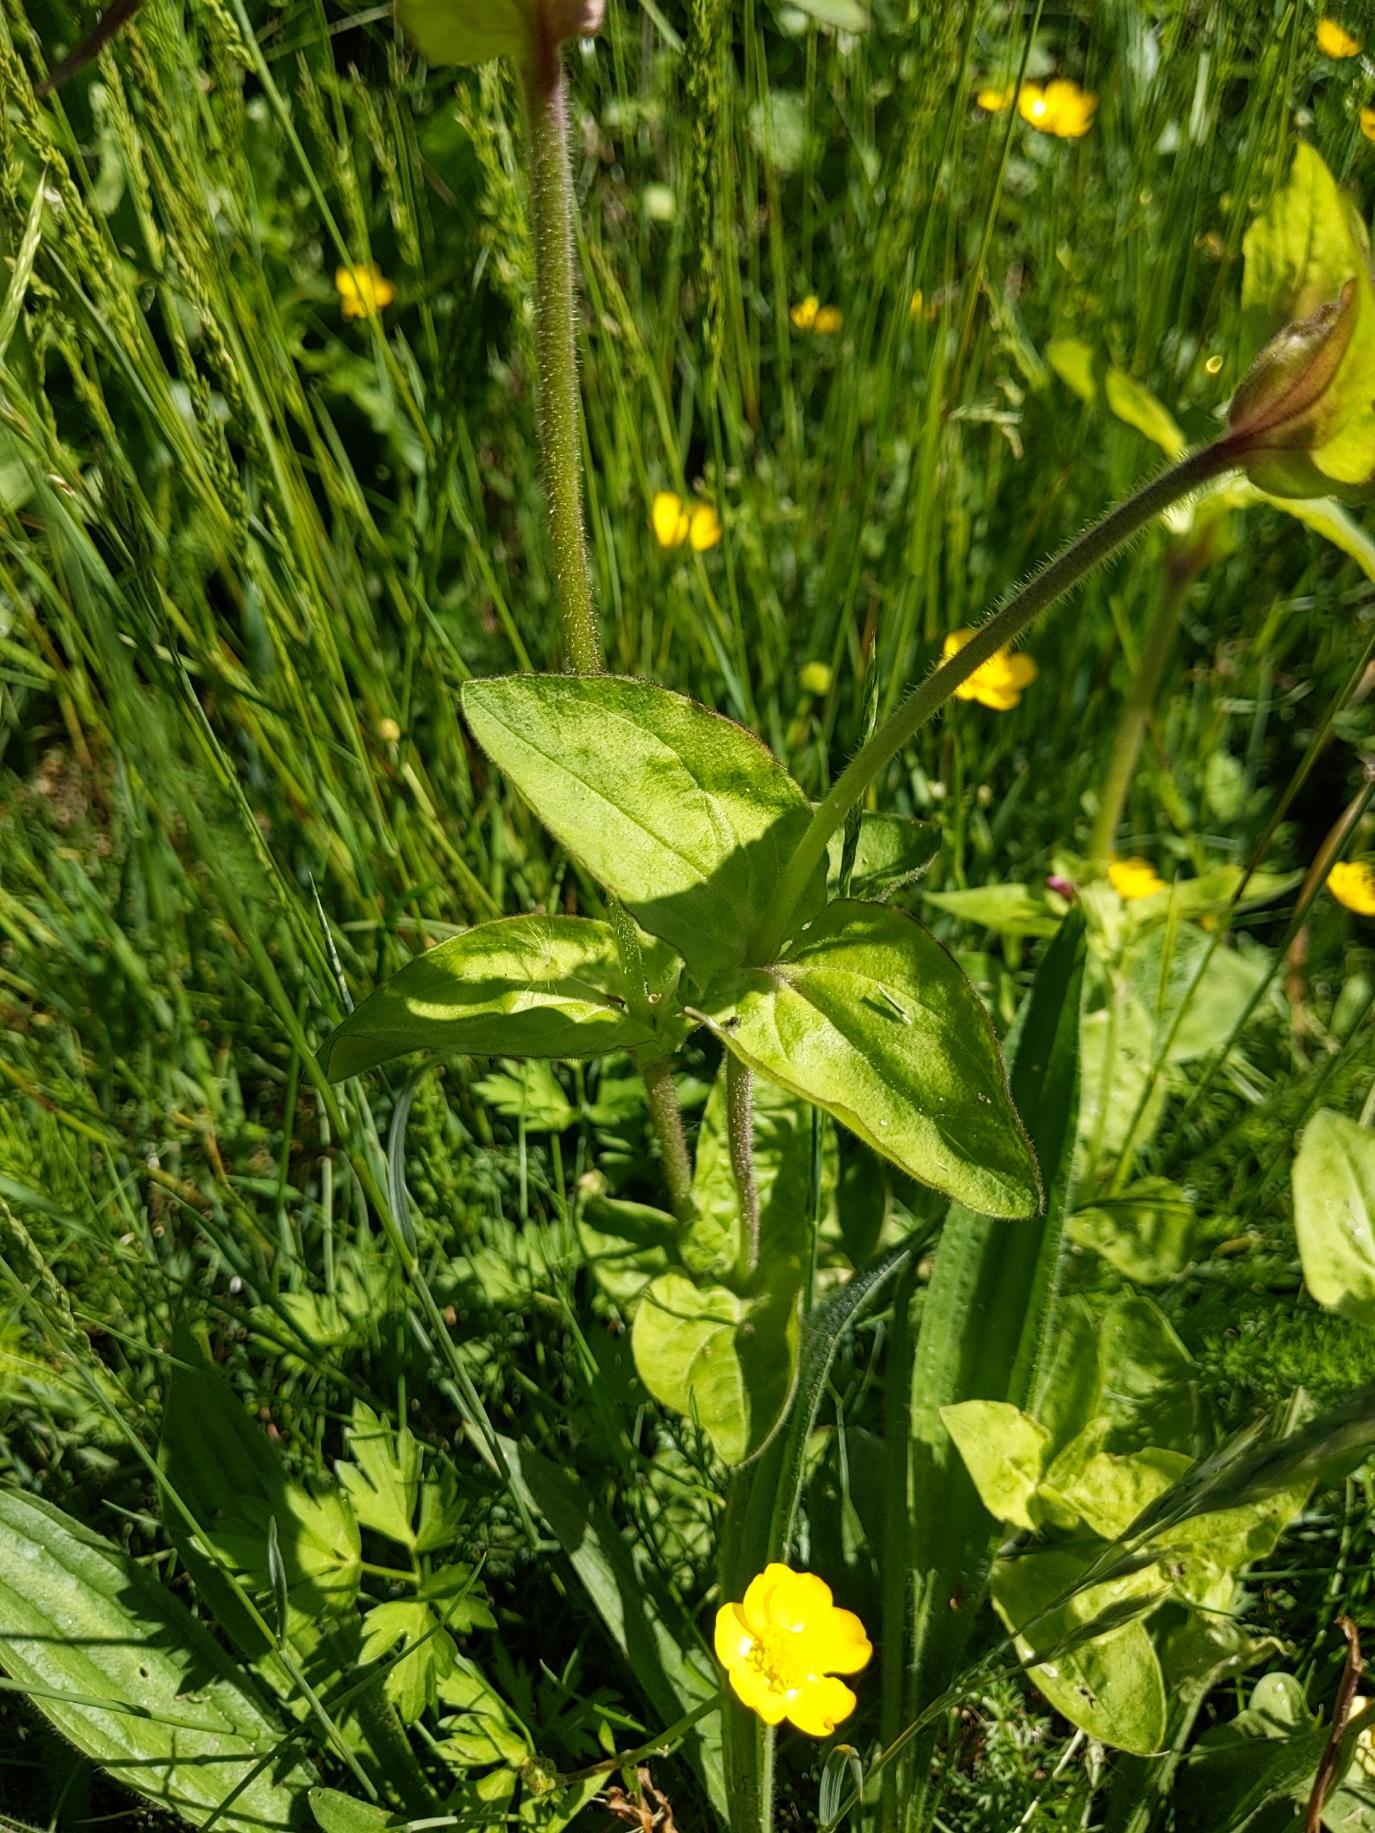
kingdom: Plantae
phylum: Tracheophyta
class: Magnoliopsida
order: Caryophyllales
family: Caryophyllaceae
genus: Silene
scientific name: Silene dioica
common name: Dagpragtstjerne
